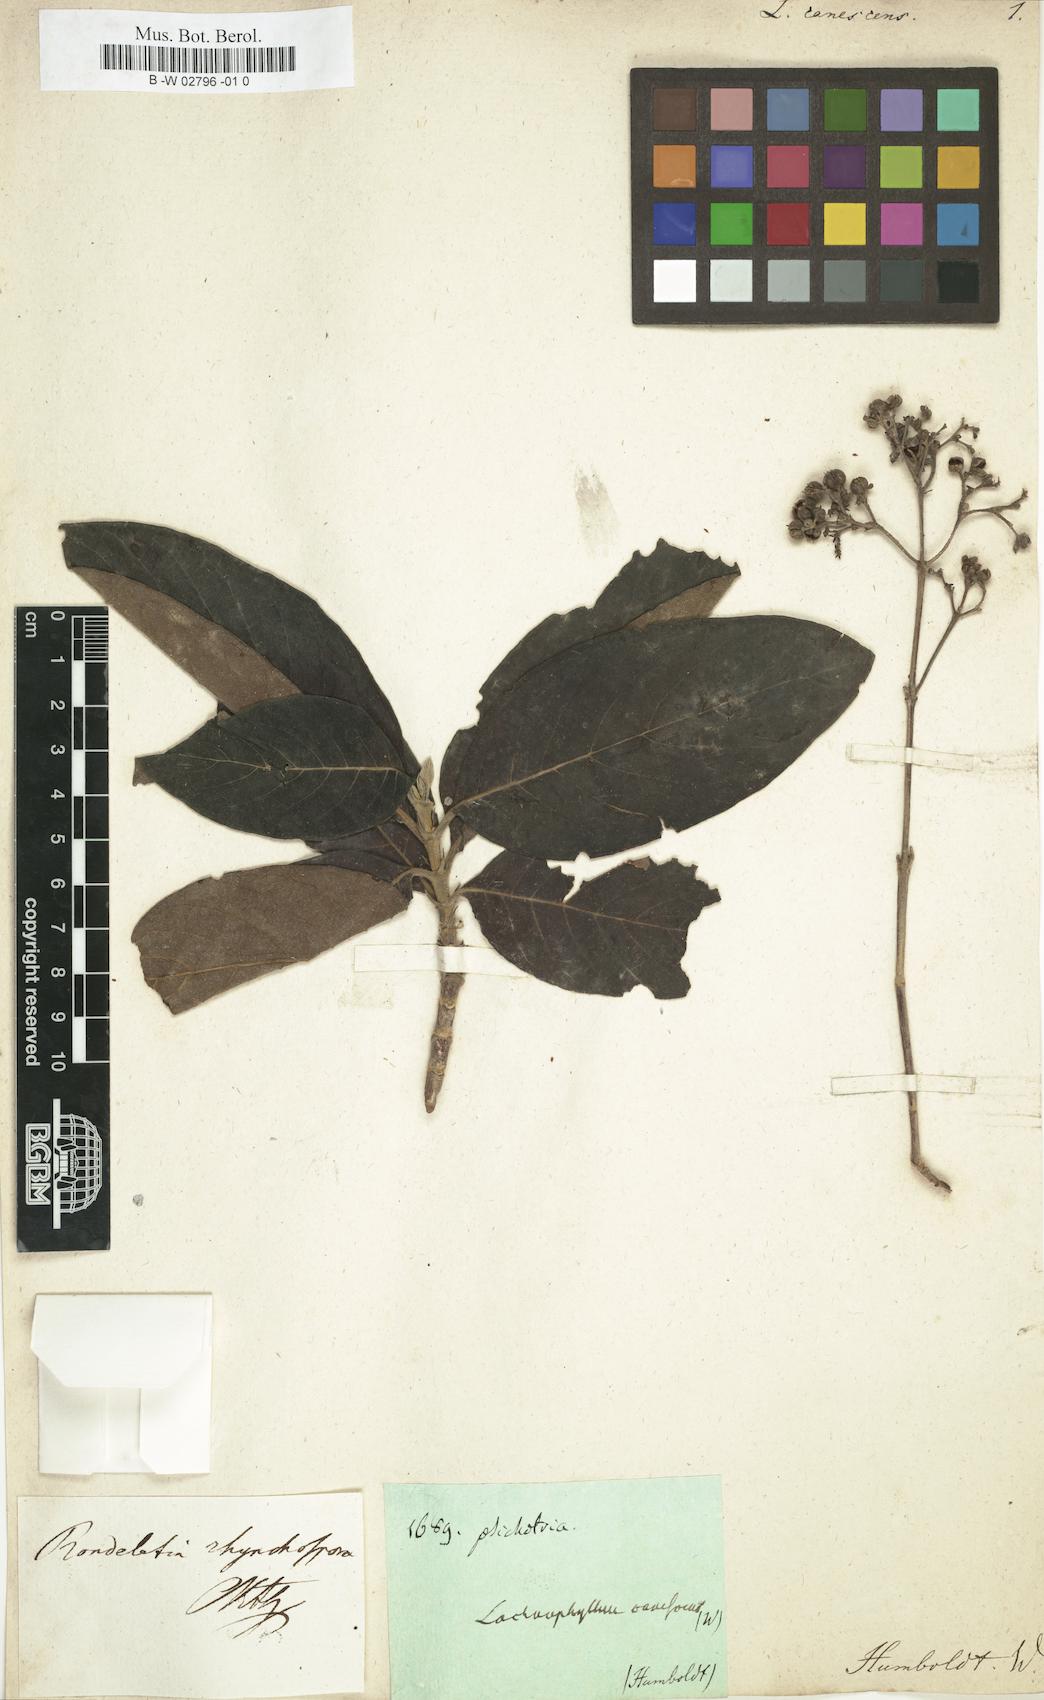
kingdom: Plantae
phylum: Tracheophyta
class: Magnoliopsida
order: Asterales
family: Asteraceae
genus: Lachnophyllum
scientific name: Lachnophyllum
